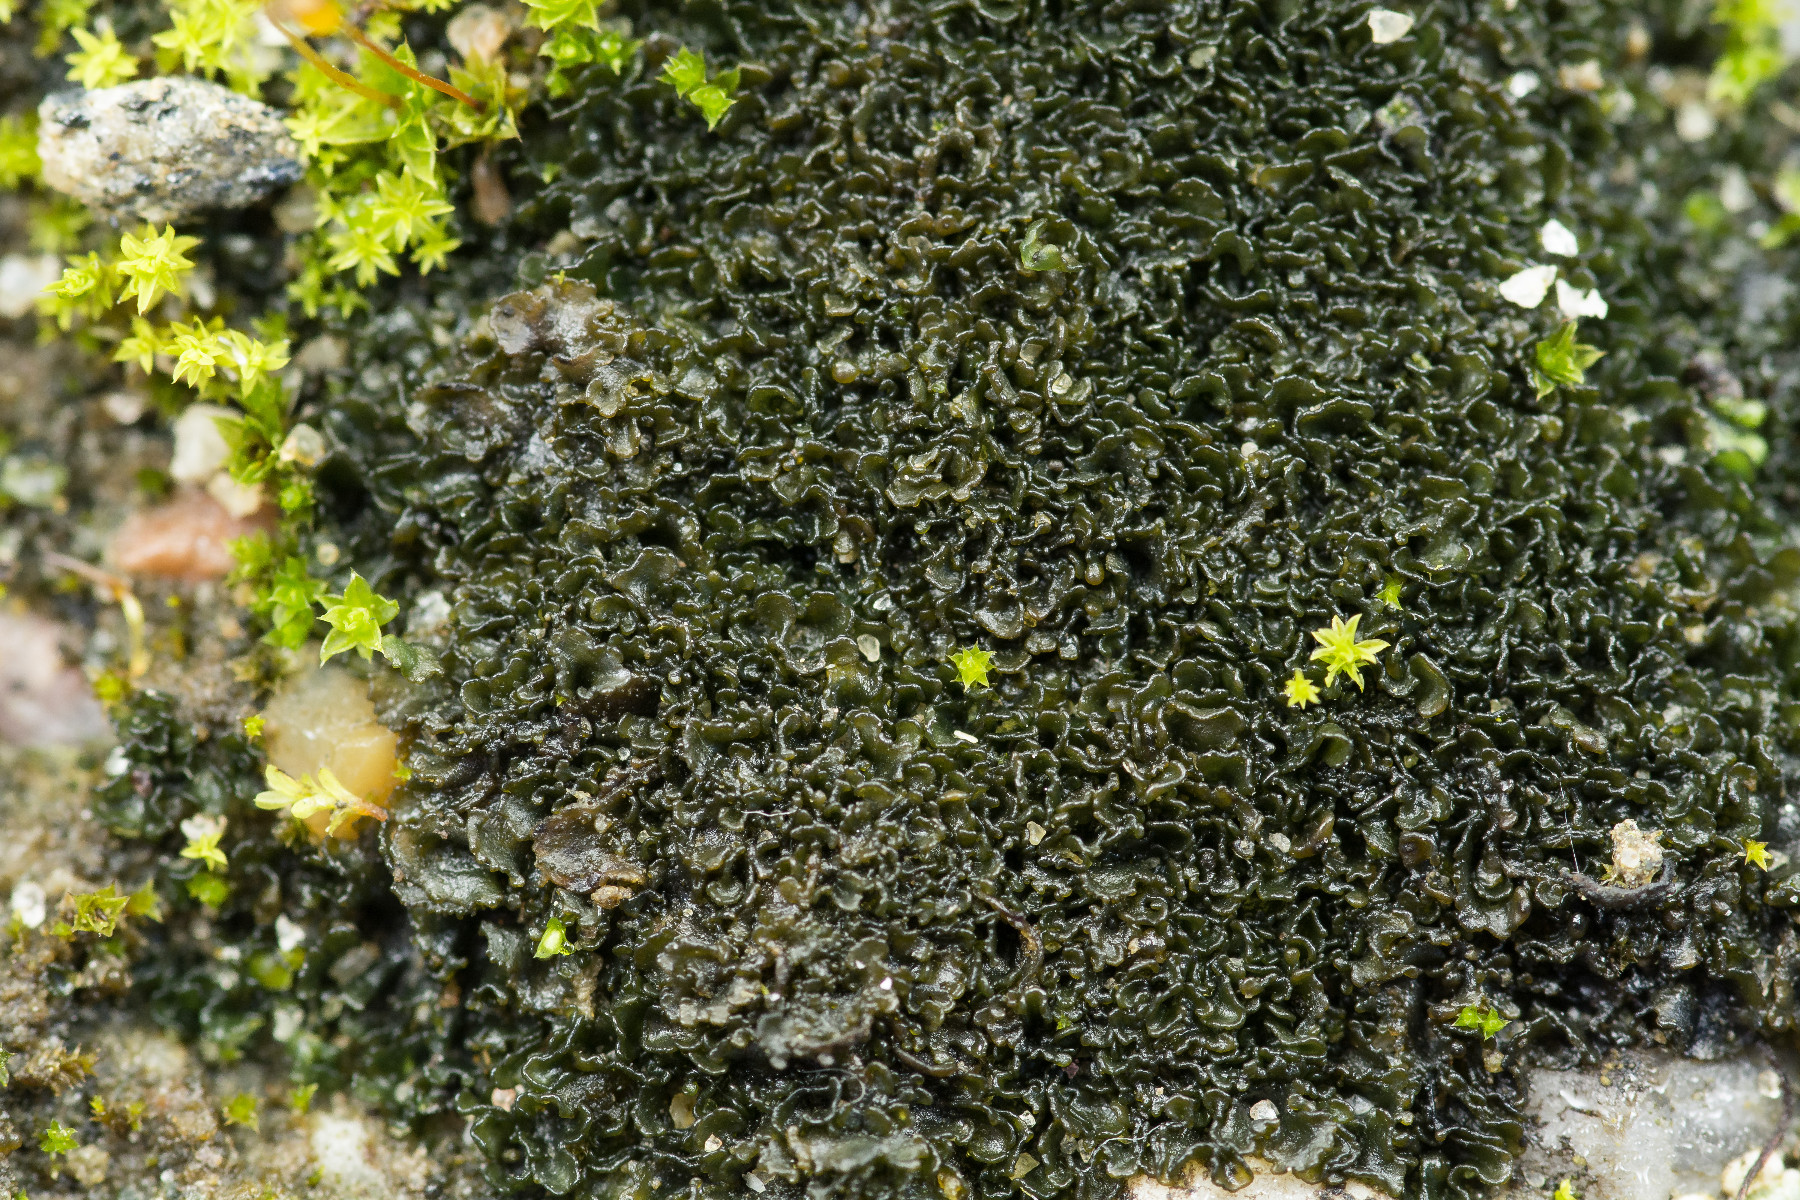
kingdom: Fungi
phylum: Ascomycota
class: Lecanoromycetes
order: Peltigerales
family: Collemataceae
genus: Blennothallia
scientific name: Blennothallia crispa
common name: kruset bævrelav
